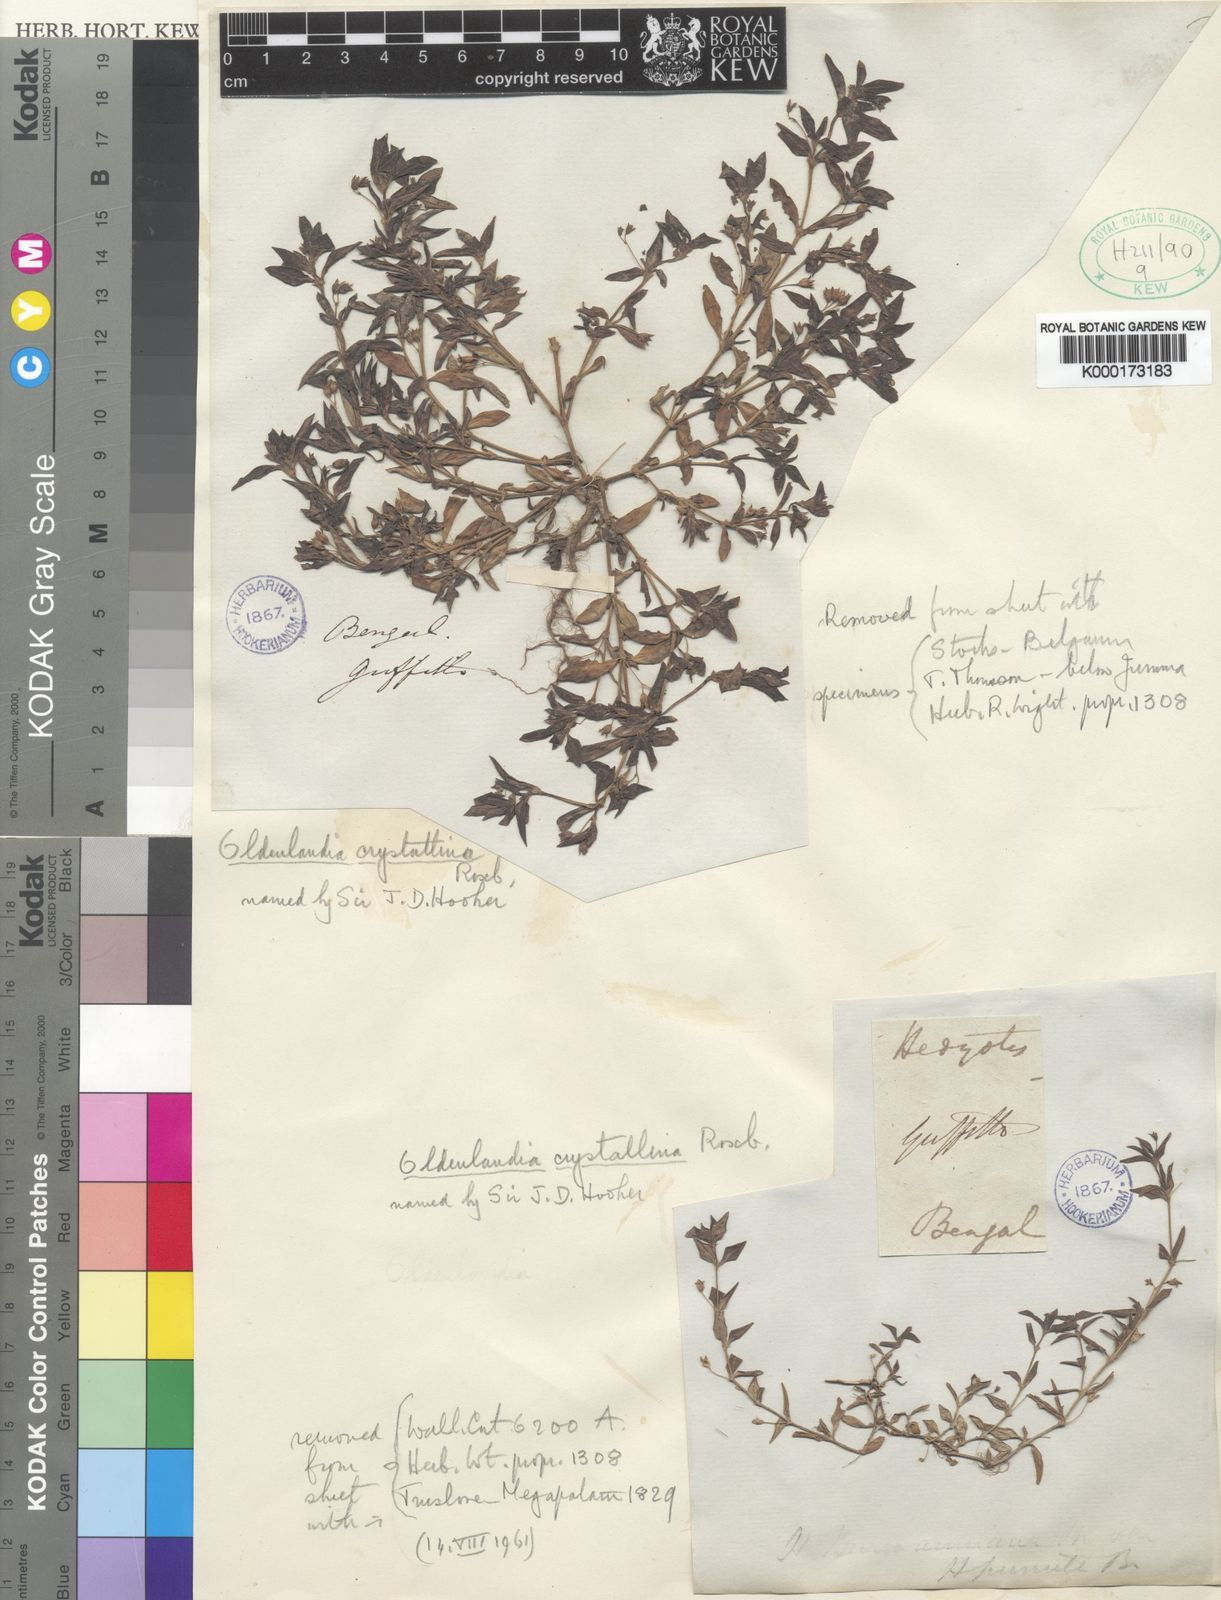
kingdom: Plantae
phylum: Tracheophyta
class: Magnoliopsida
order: Gentianales
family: Rubiaceae
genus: Oldenlandia
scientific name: Oldenlandia pumila
